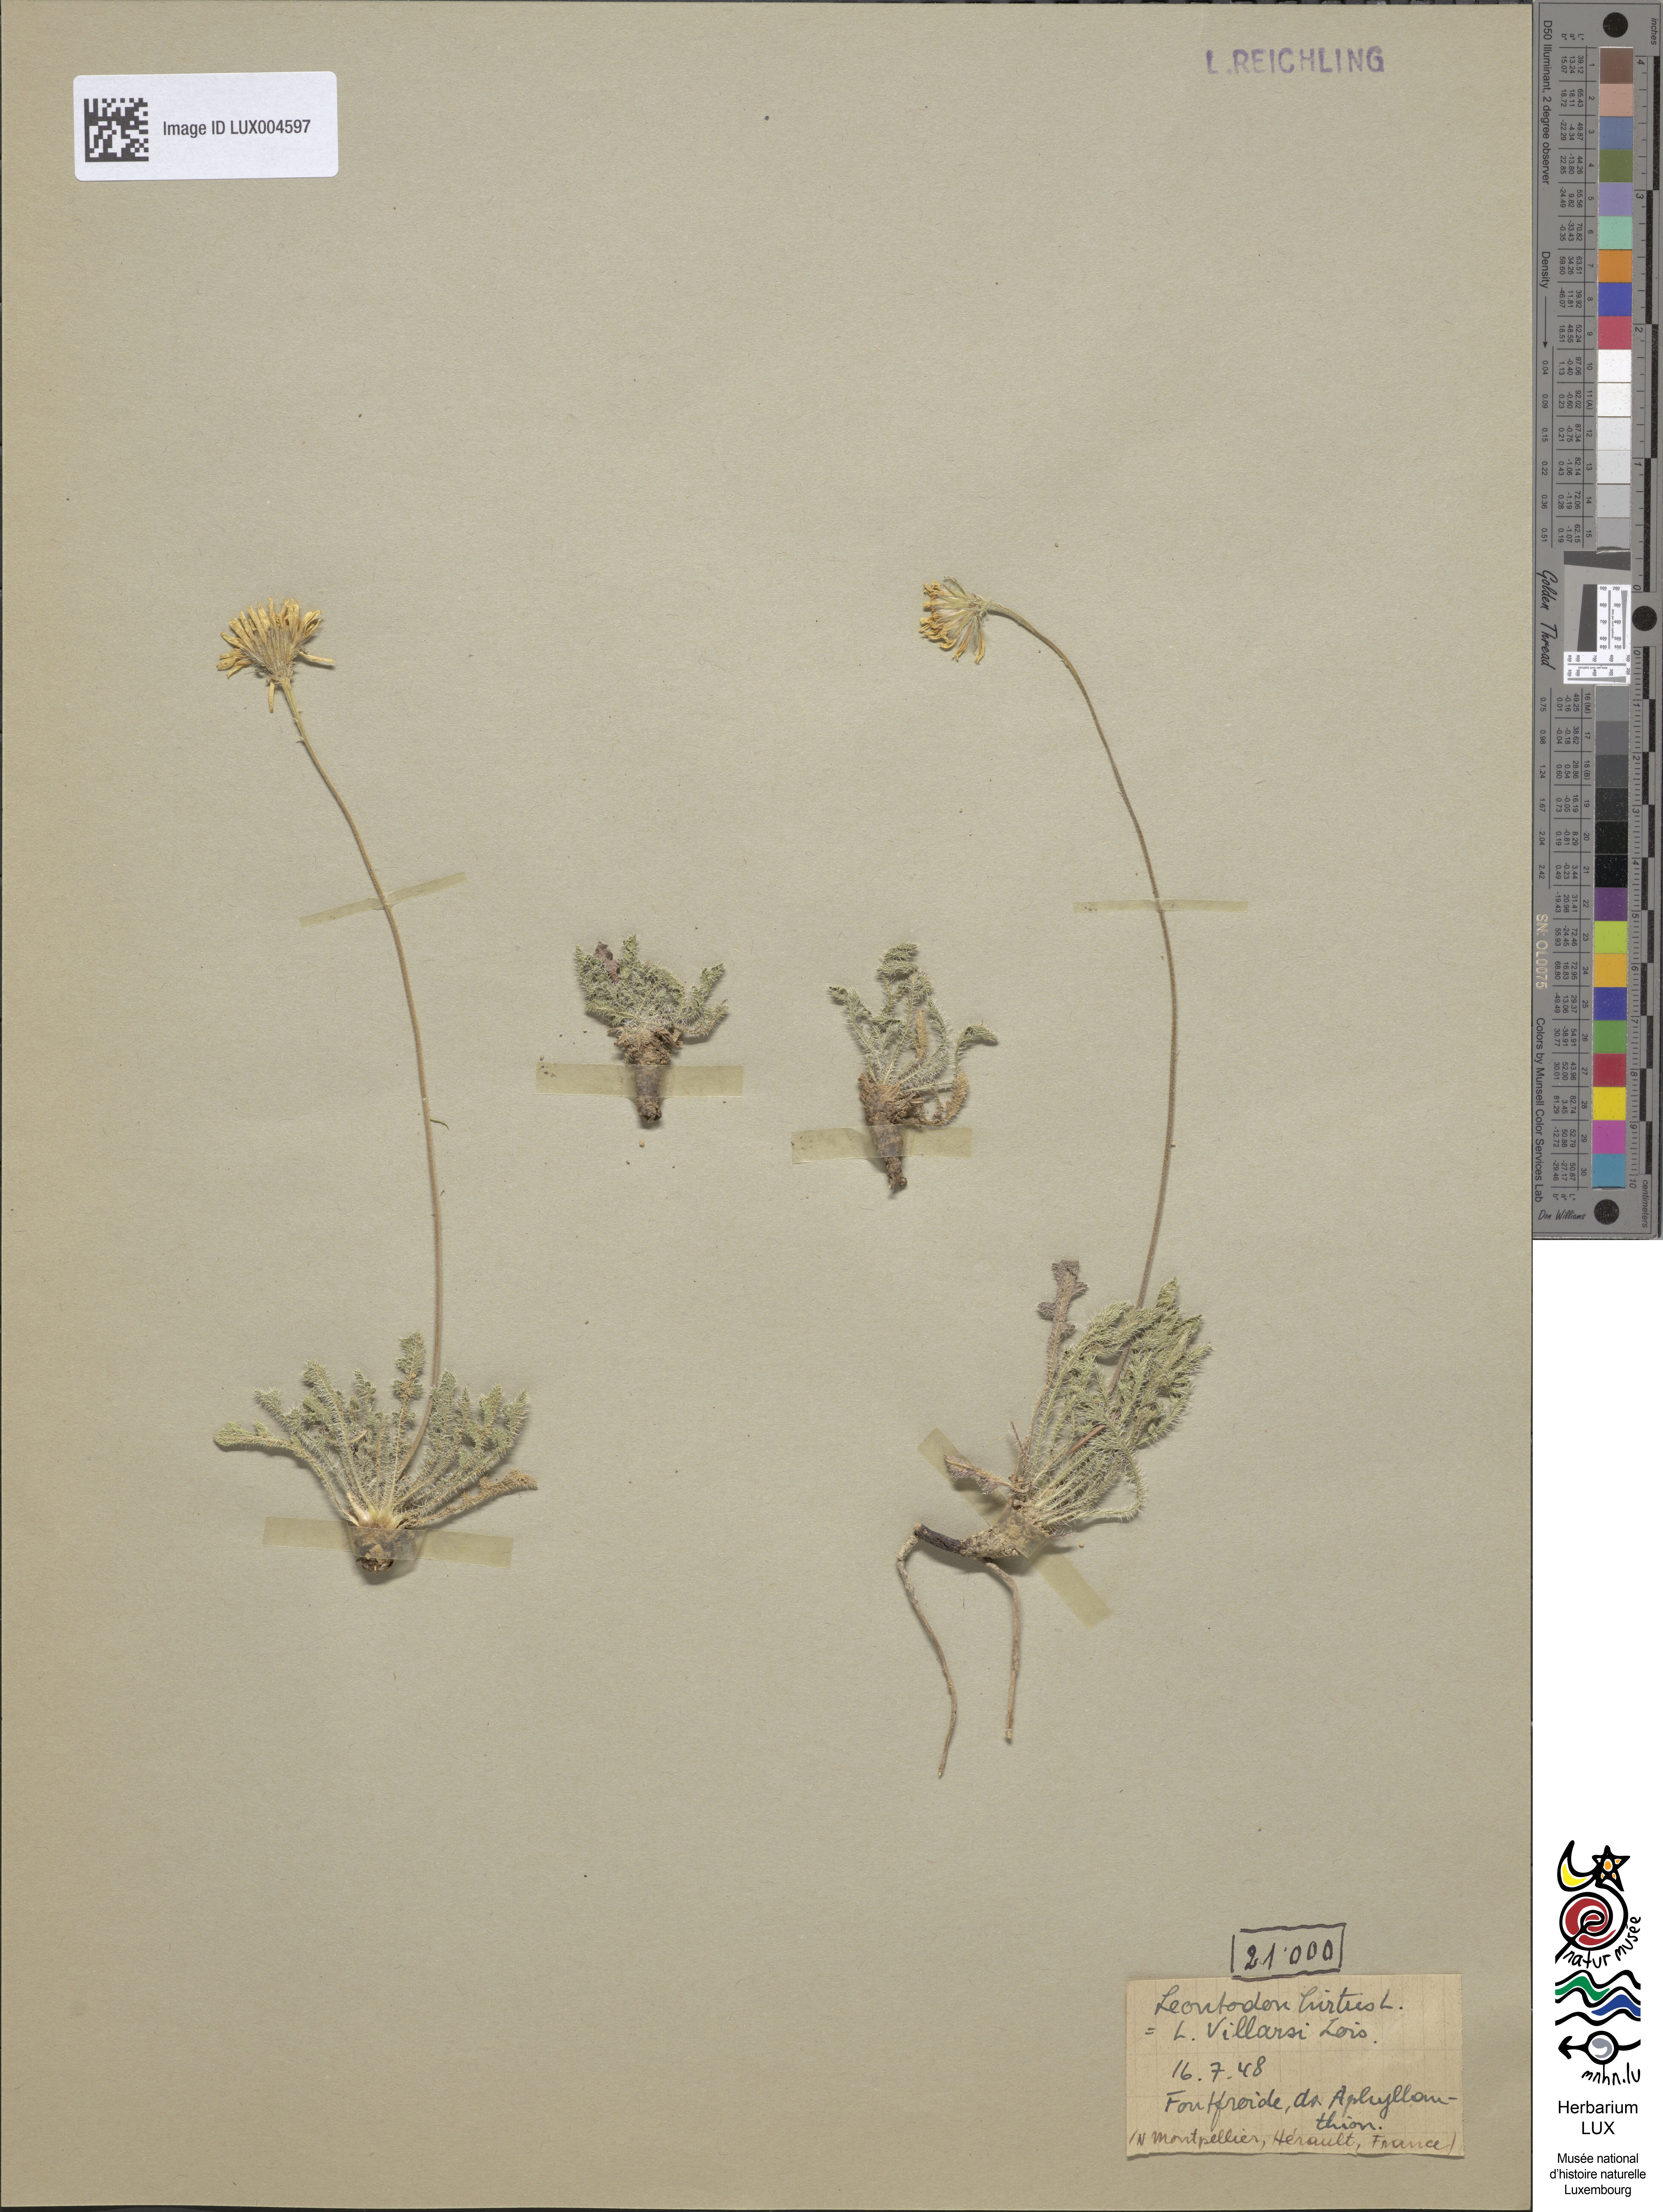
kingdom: Plantae
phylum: Tracheophyta
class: Magnoliopsida
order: Asterales
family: Asteraceae
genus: Leontodon
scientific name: Leontodon hirtus
